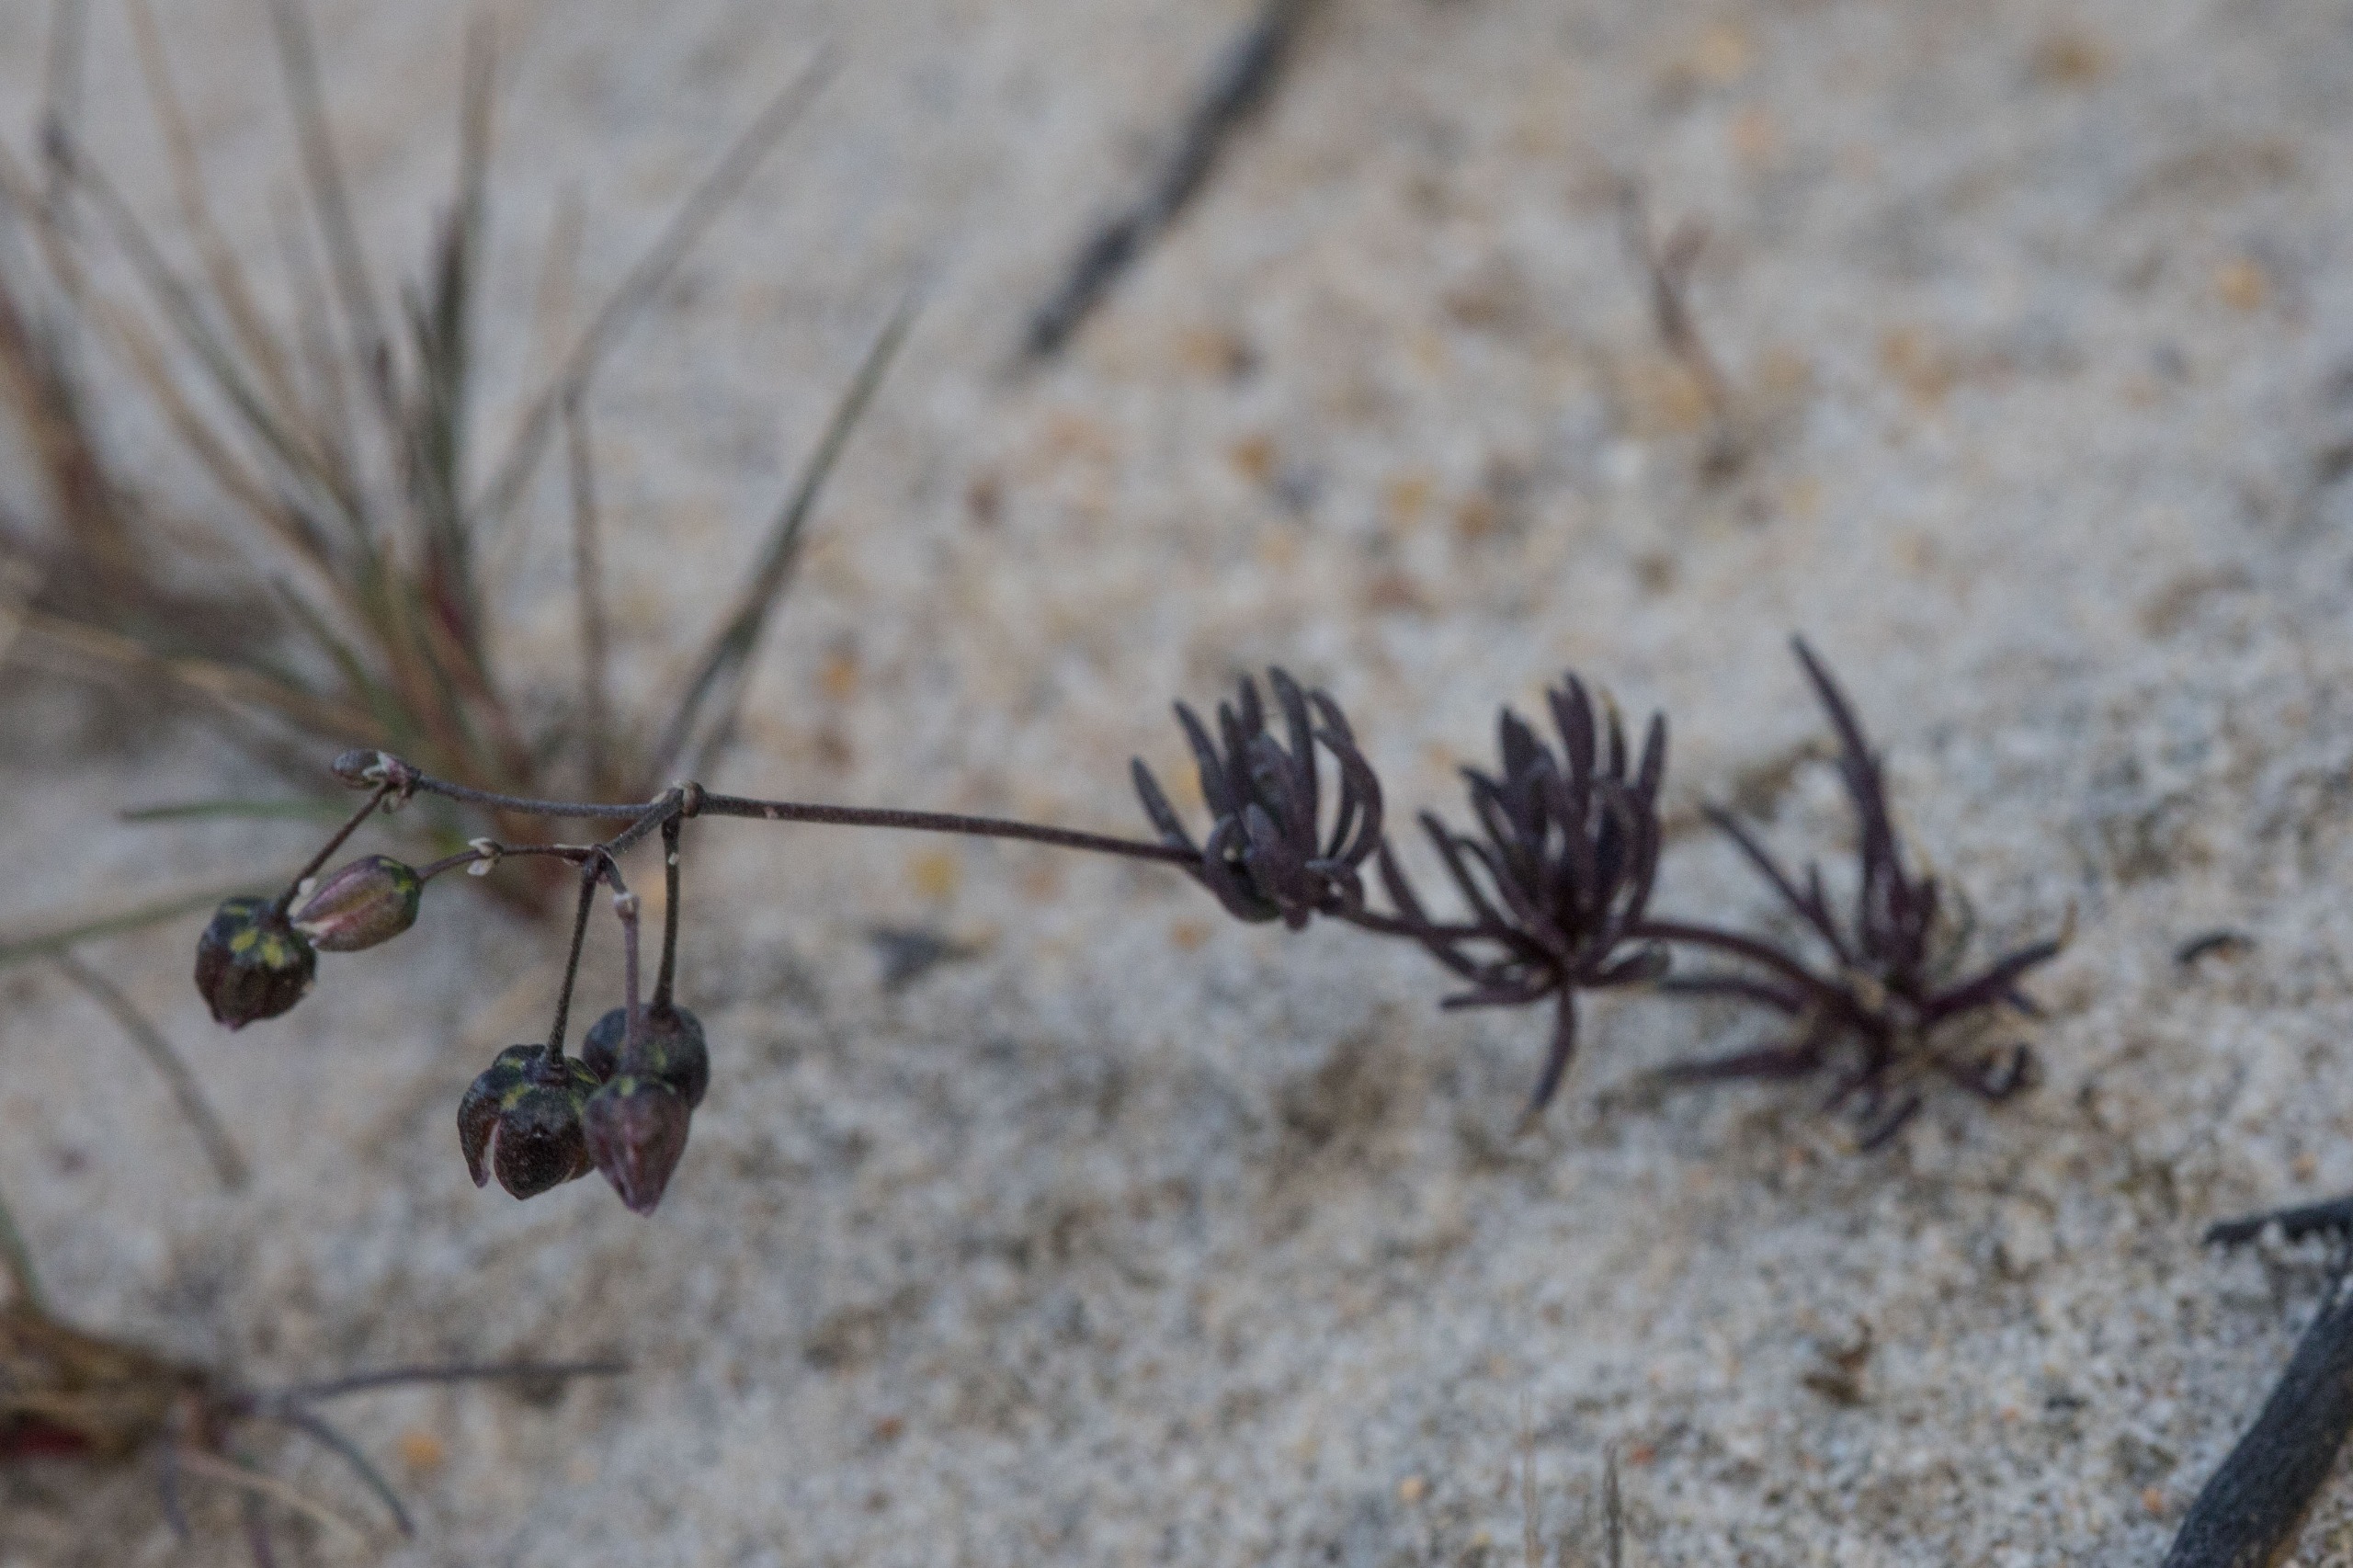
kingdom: Plantae
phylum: Tracheophyta
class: Magnoliopsida
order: Caryophyllales
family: Caryophyllaceae
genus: Spergula
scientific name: Spergula morisonii
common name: Vår-spergel
